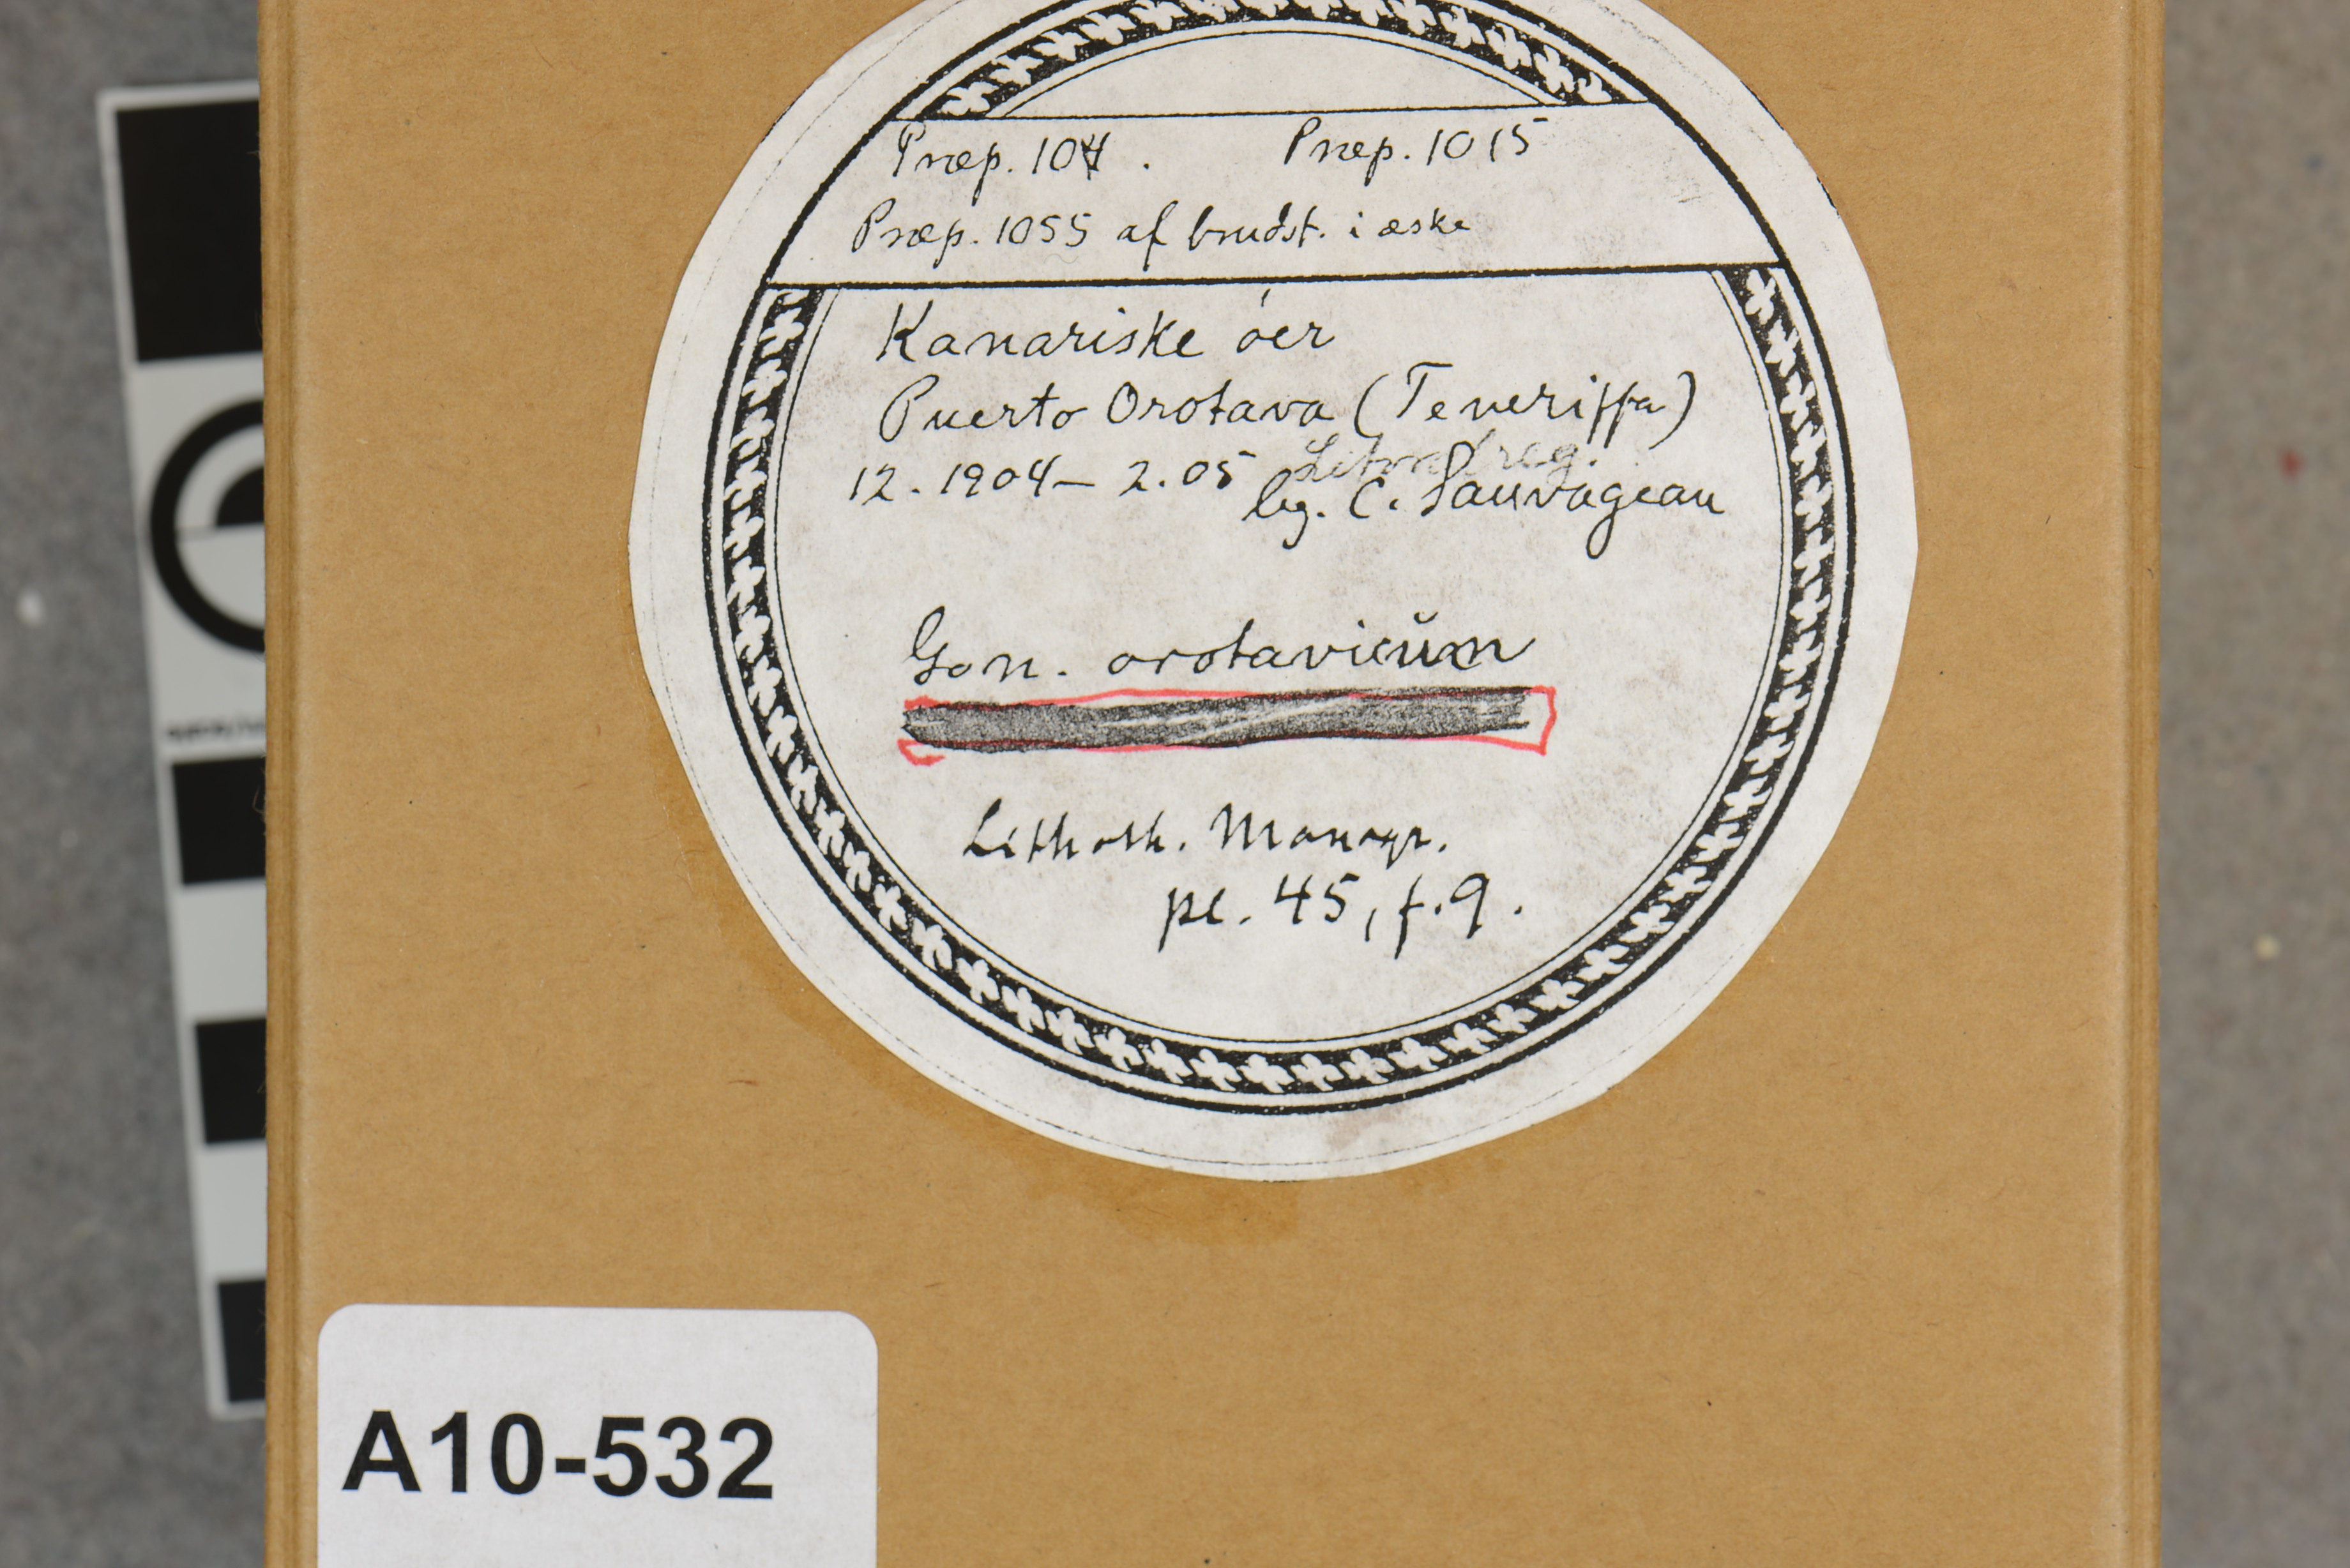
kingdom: Plantae
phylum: Rhodophyta
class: Florideophyceae
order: Corallinales
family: Lithophyllaceae
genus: Goniolithon
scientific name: Goniolithon orotavicum
